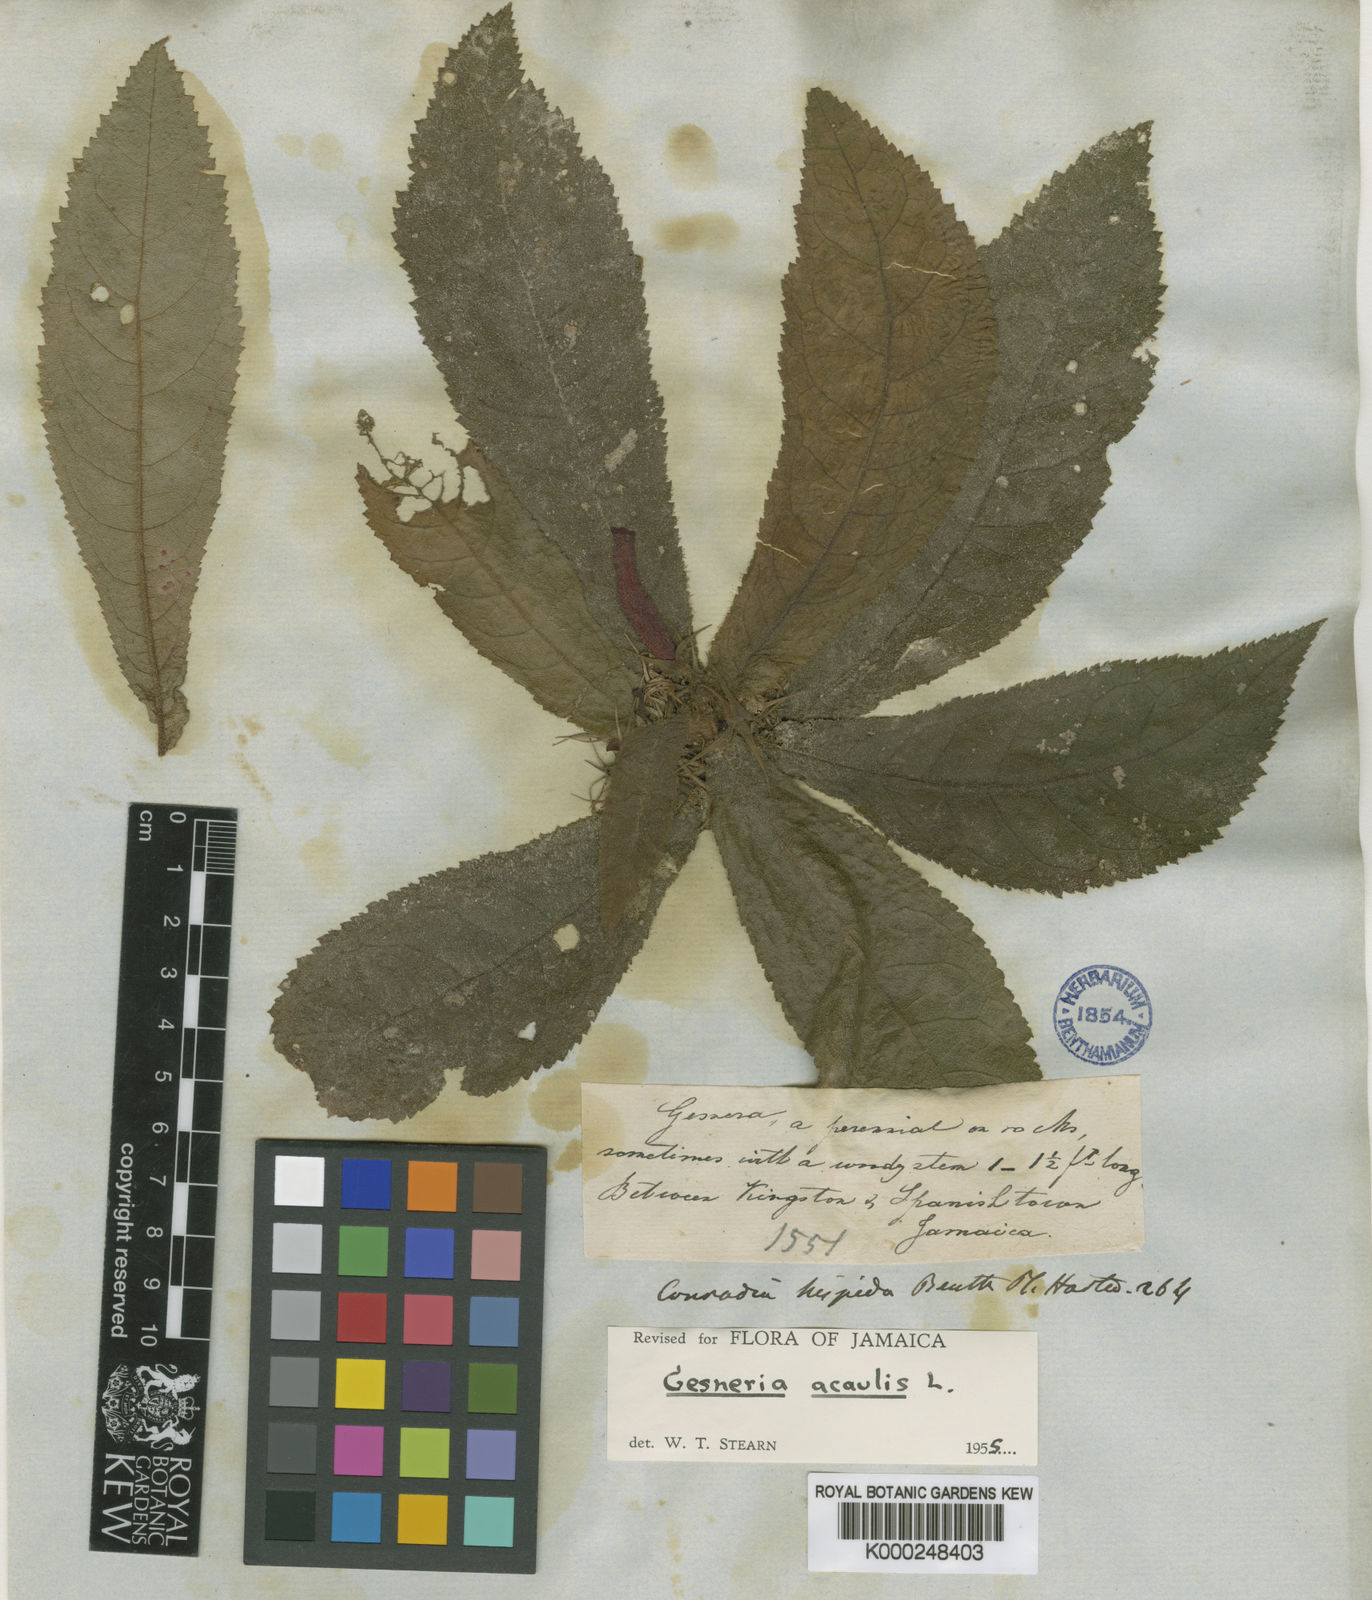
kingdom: Plantae
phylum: Tracheophyta
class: Magnoliopsida
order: Lamiales
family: Gesneriaceae
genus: Gesneria
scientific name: Gesneria acaulis
